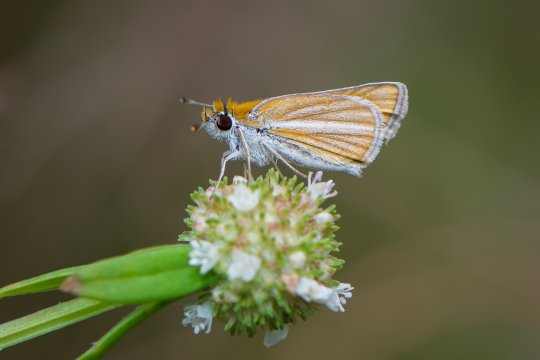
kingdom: Animalia
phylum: Arthropoda
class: Insecta
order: Lepidoptera
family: Hesperiidae
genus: Copaeodes
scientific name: Copaeodes minima
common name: Southern Skipperling
